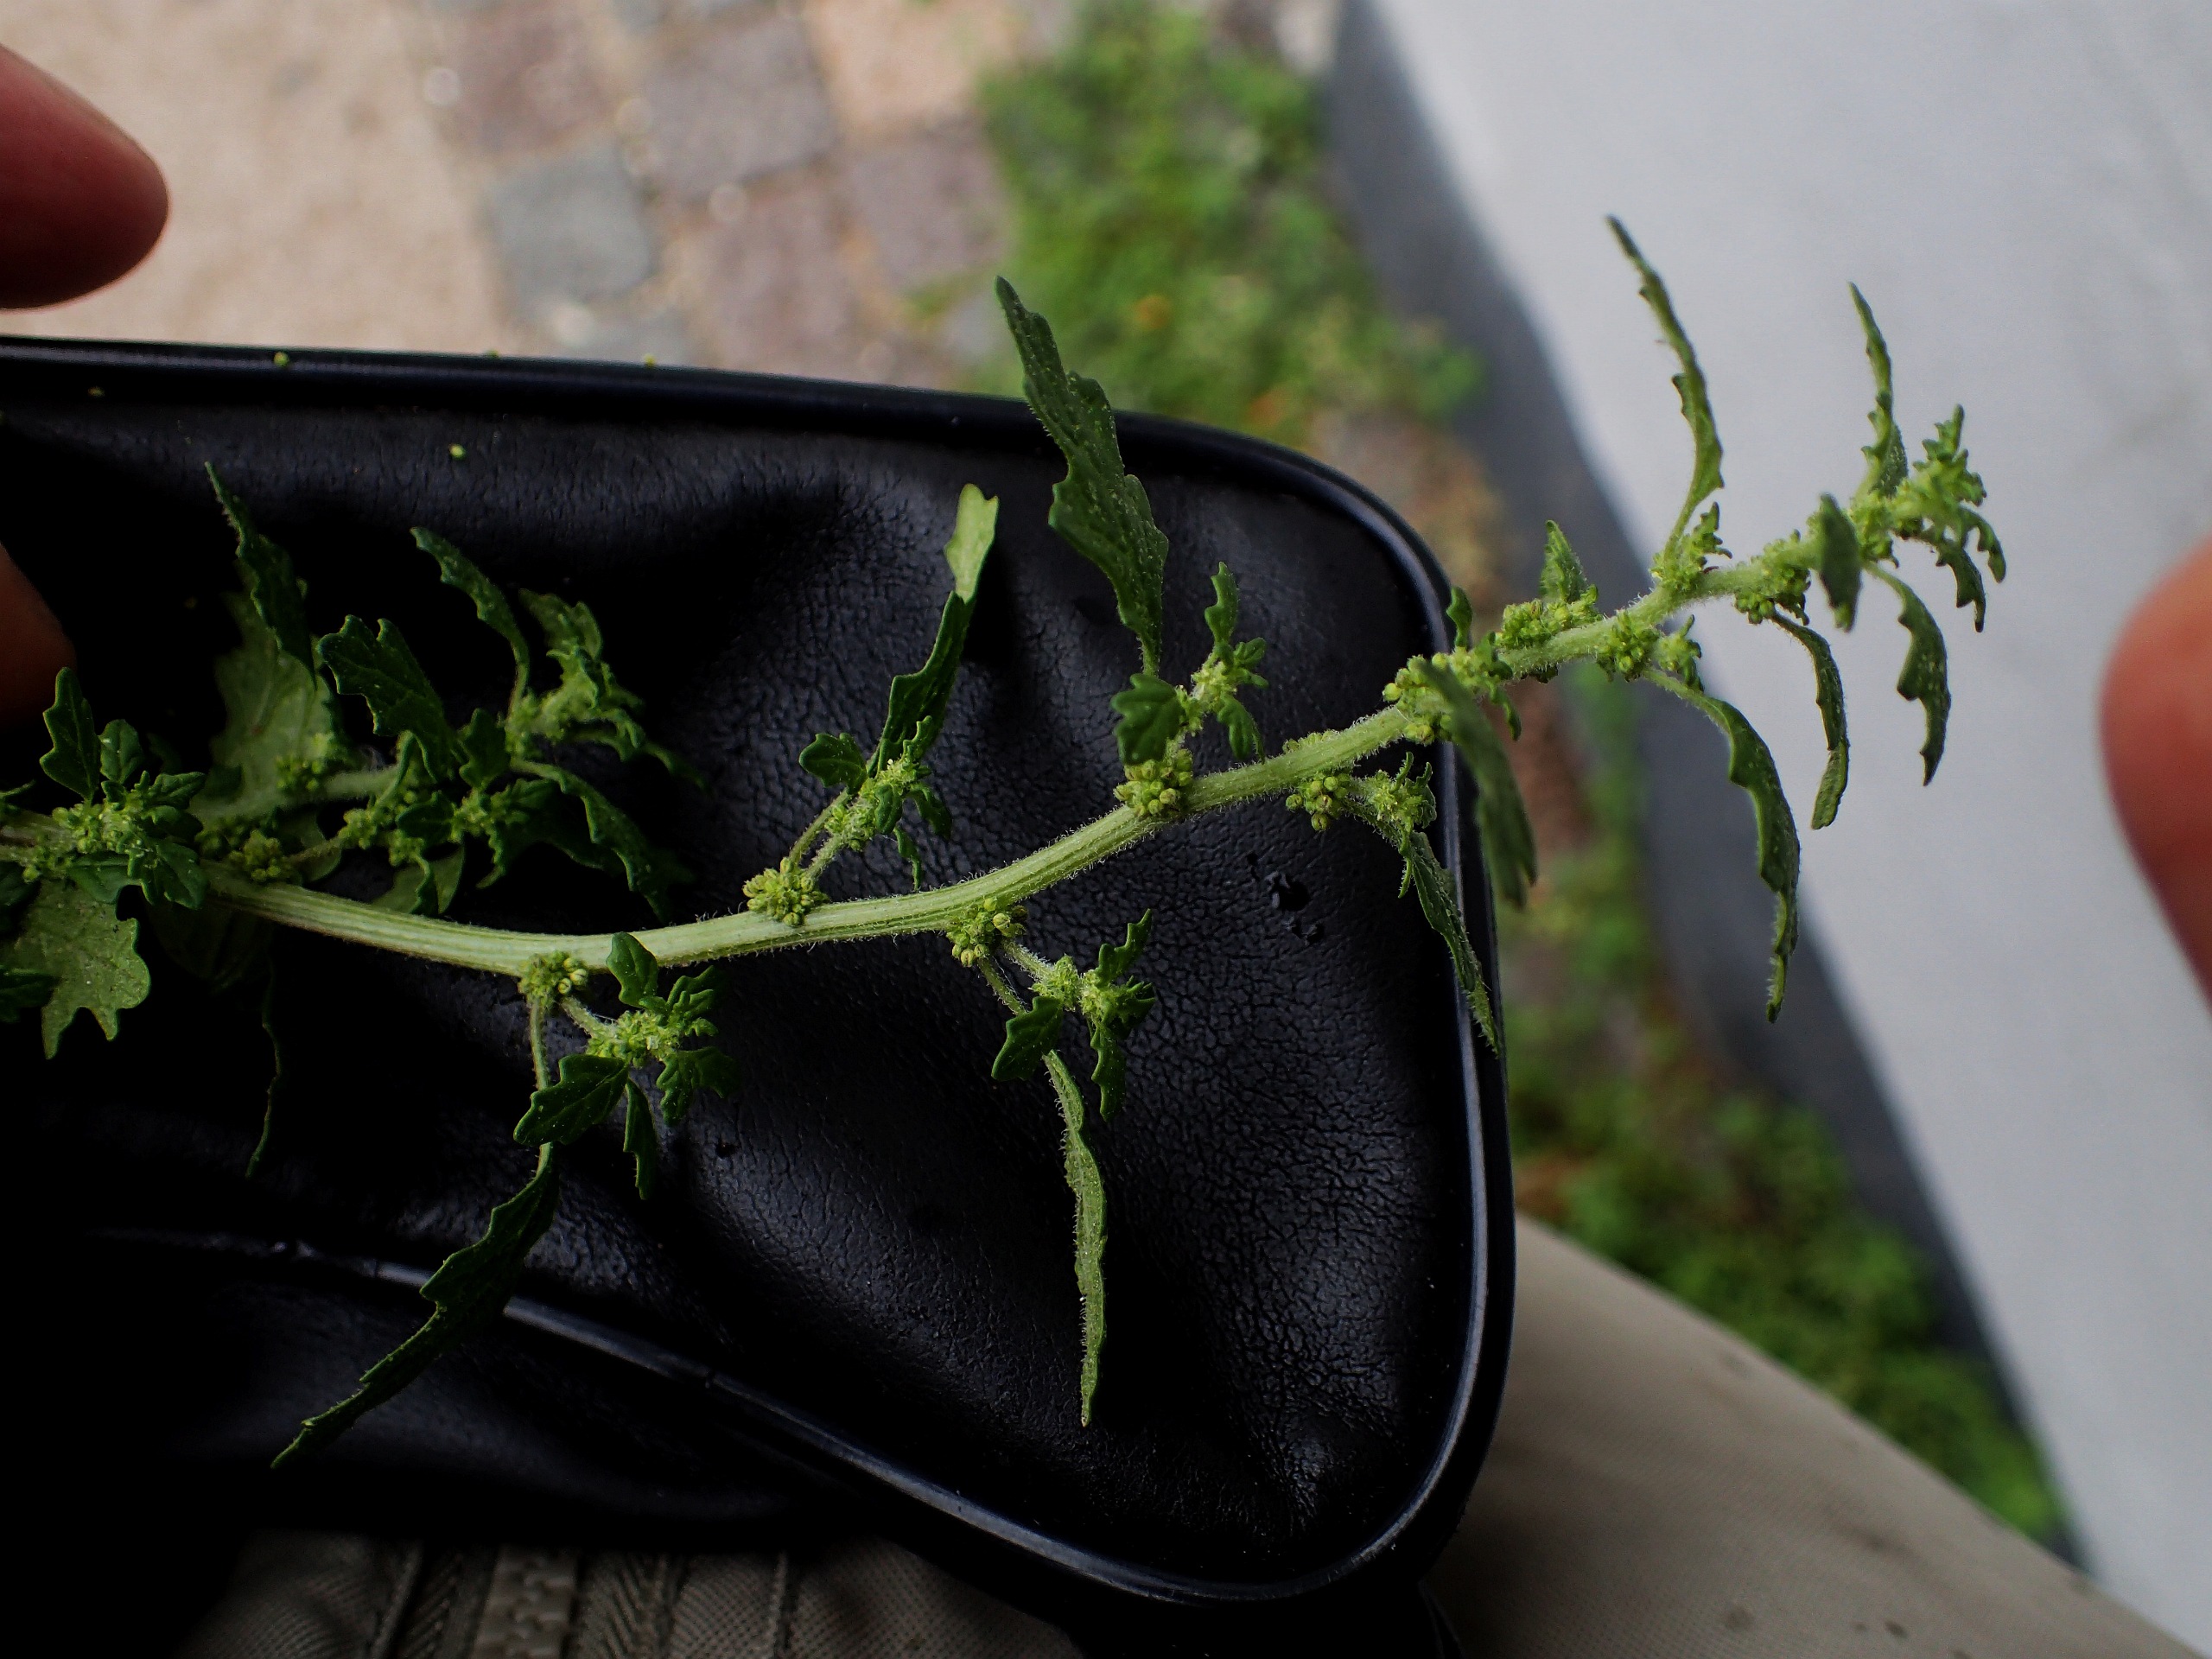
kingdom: Plantae
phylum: Tracheophyta
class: Magnoliopsida
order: Caryophyllales
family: Amaranthaceae
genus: Dysphania
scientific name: Dysphania pumilio
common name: Dværg-gåsefod
